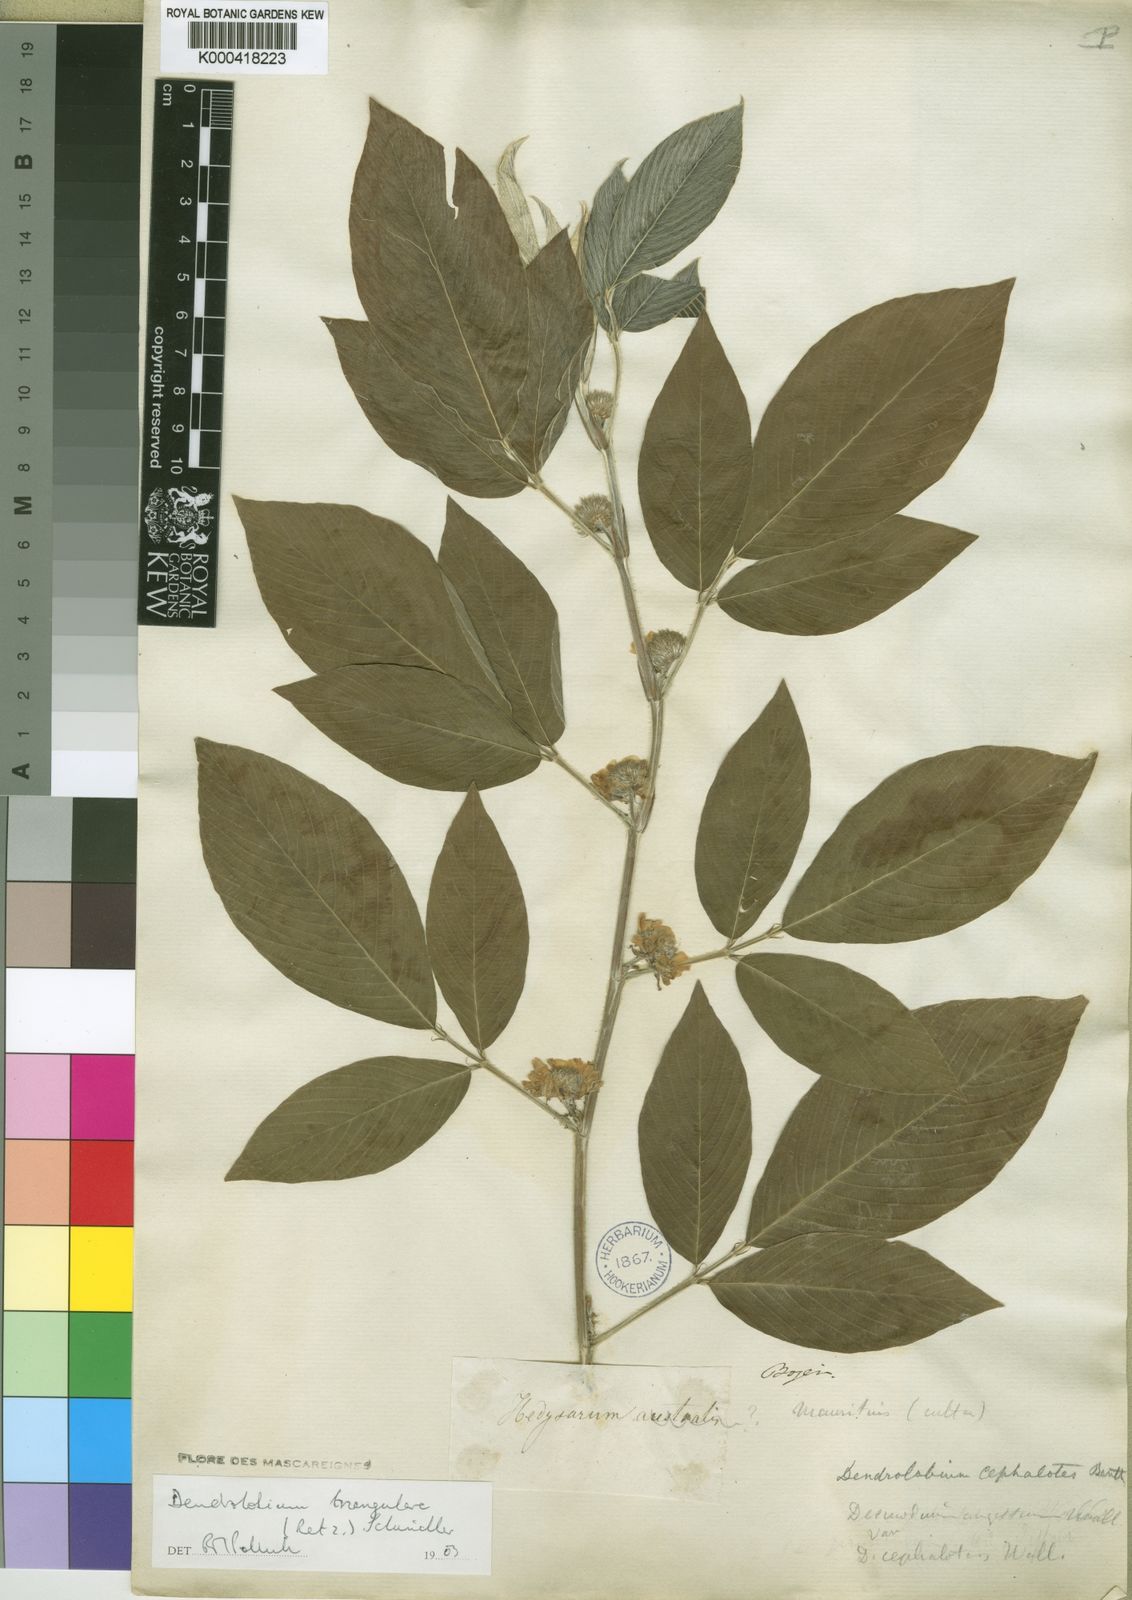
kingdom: Plantae
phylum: Tracheophyta
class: Magnoliopsida
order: Fabales
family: Fabaceae
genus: Dendrolobium
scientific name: Dendrolobium triangulare
